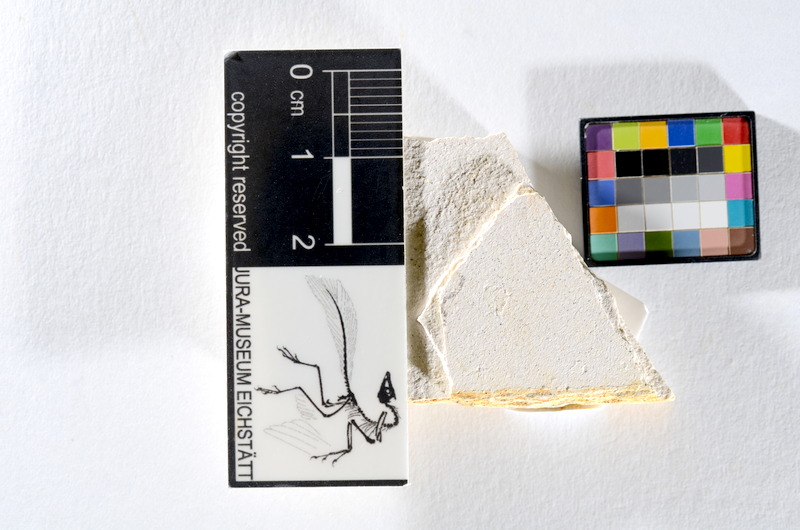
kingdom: Animalia
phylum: Chordata
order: Salmoniformes
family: Orthogonikleithridae
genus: Orthogonikleithrus
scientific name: Orthogonikleithrus hoelli
